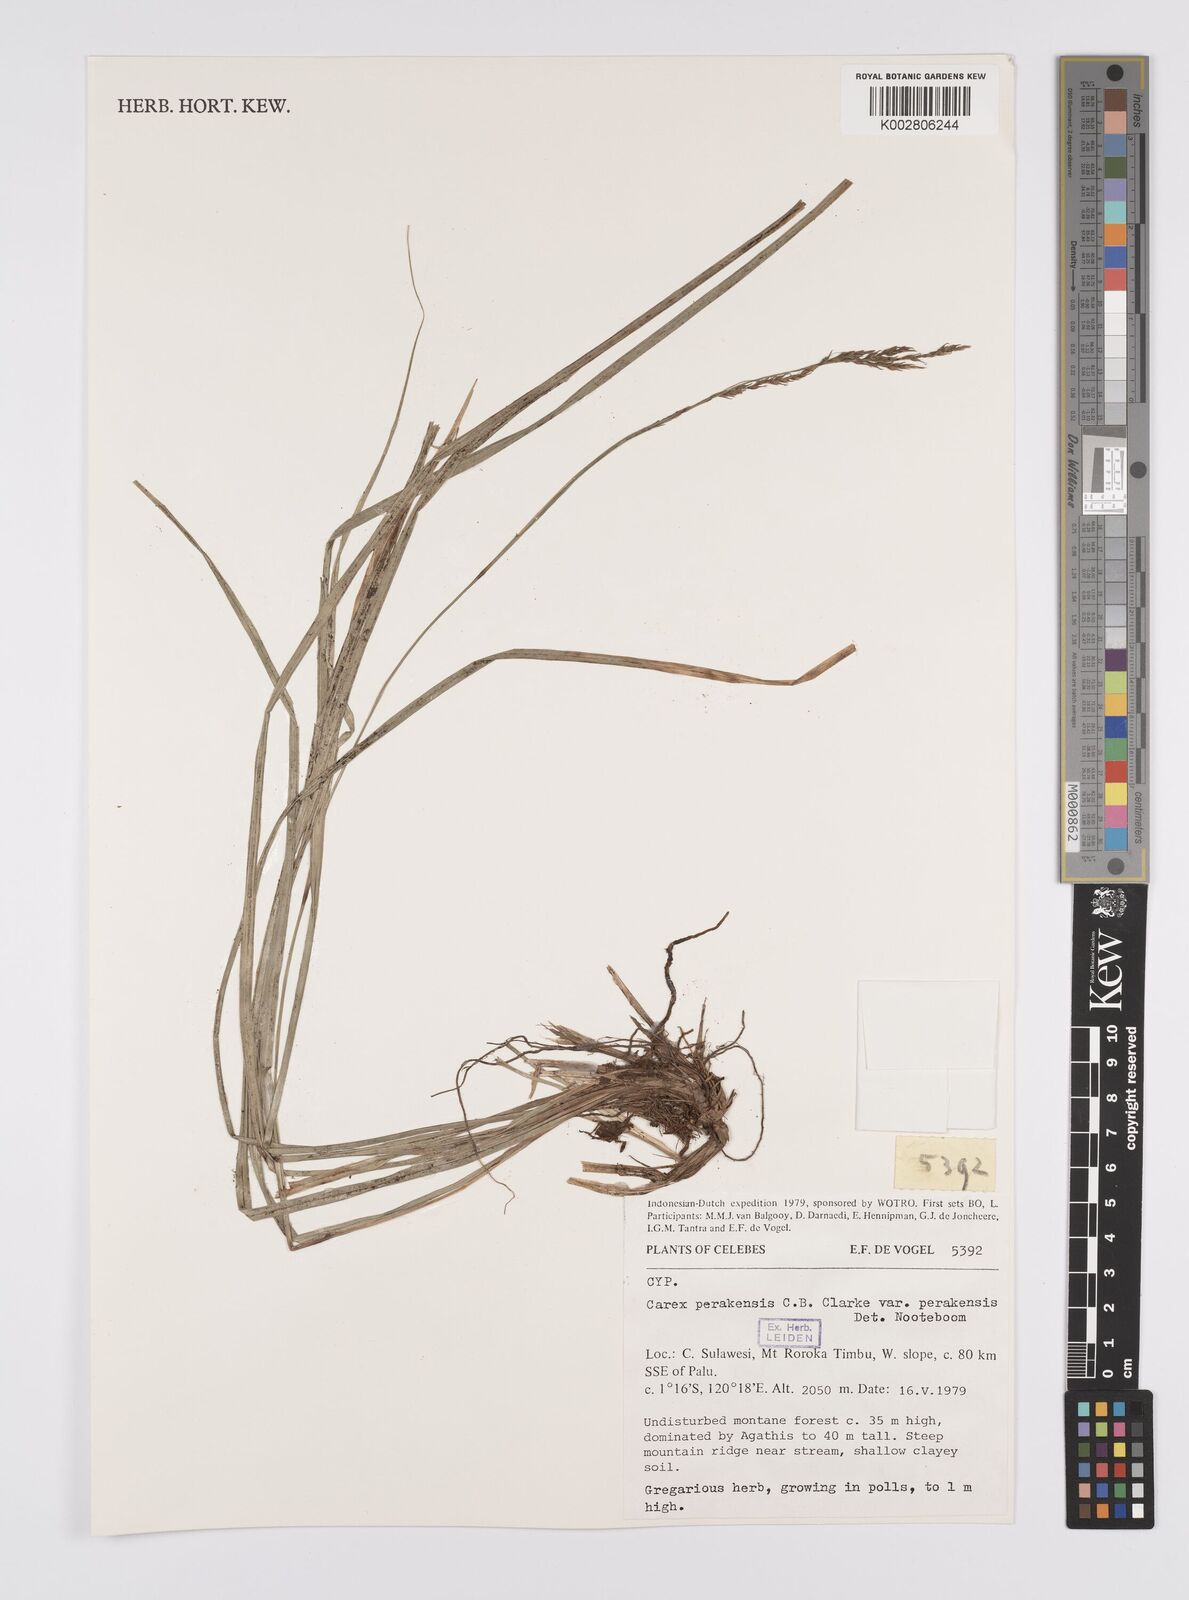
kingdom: Plantae
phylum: Tracheophyta
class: Liliopsida
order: Poales
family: Cyperaceae
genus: Carex
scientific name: Carex perakensis
